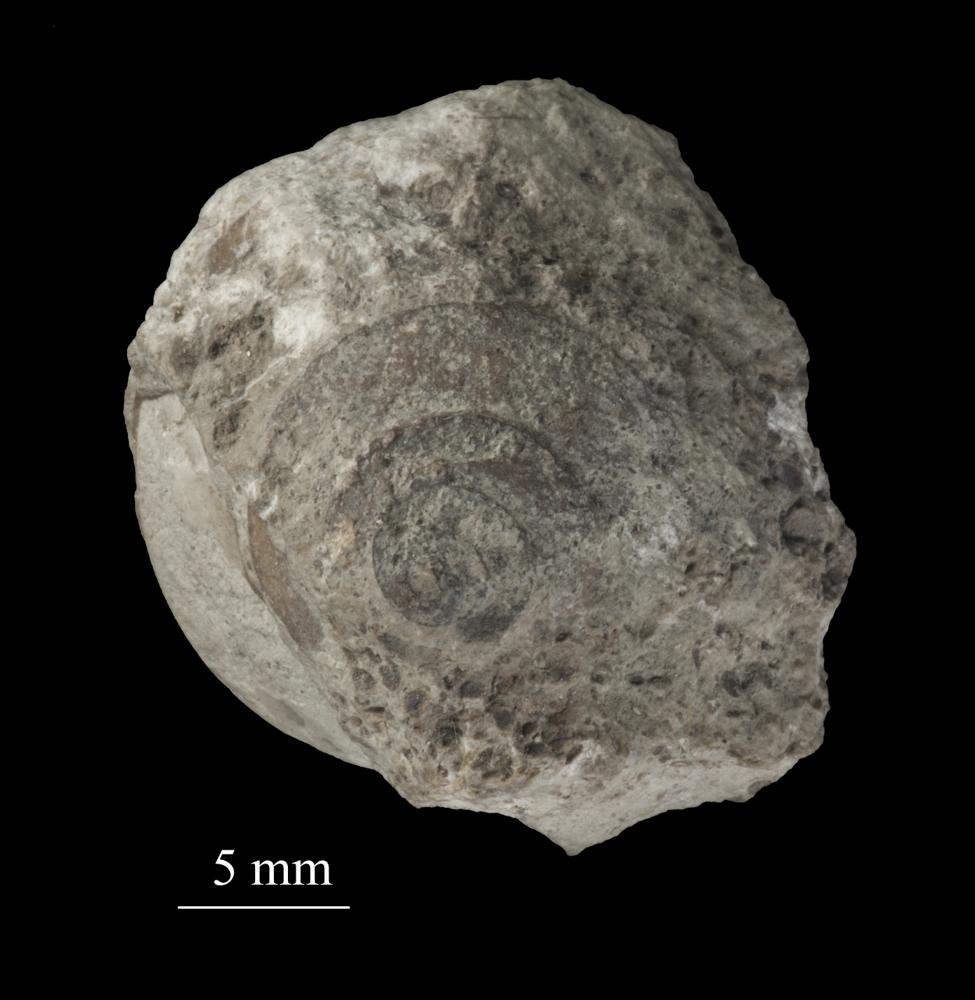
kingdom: Animalia
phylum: Mollusca
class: Gastropoda
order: Pleurotomariida
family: Gosseletinidae
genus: Deacheospira
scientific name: Deacheospira Pleurotomaria maritima
